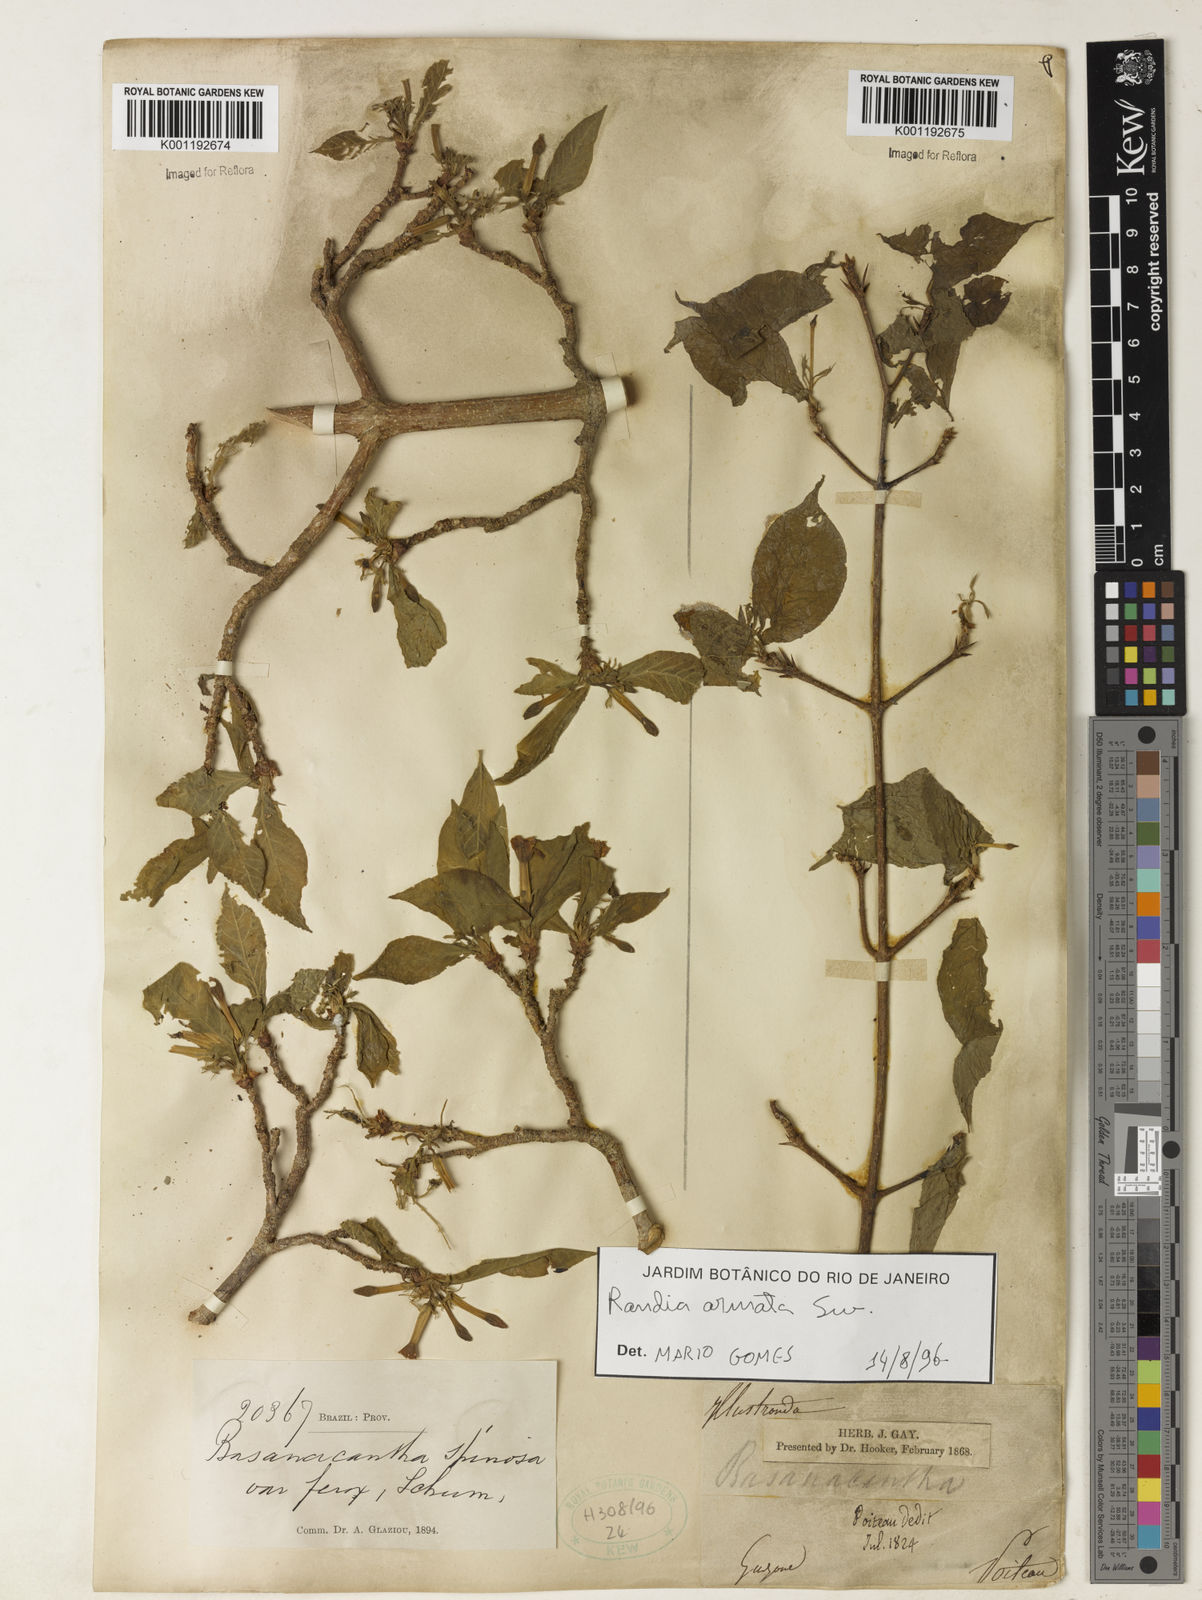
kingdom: Plantae
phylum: Tracheophyta
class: Magnoliopsida
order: Gentianales
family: Rubiaceae
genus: Randia
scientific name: Randia armata
